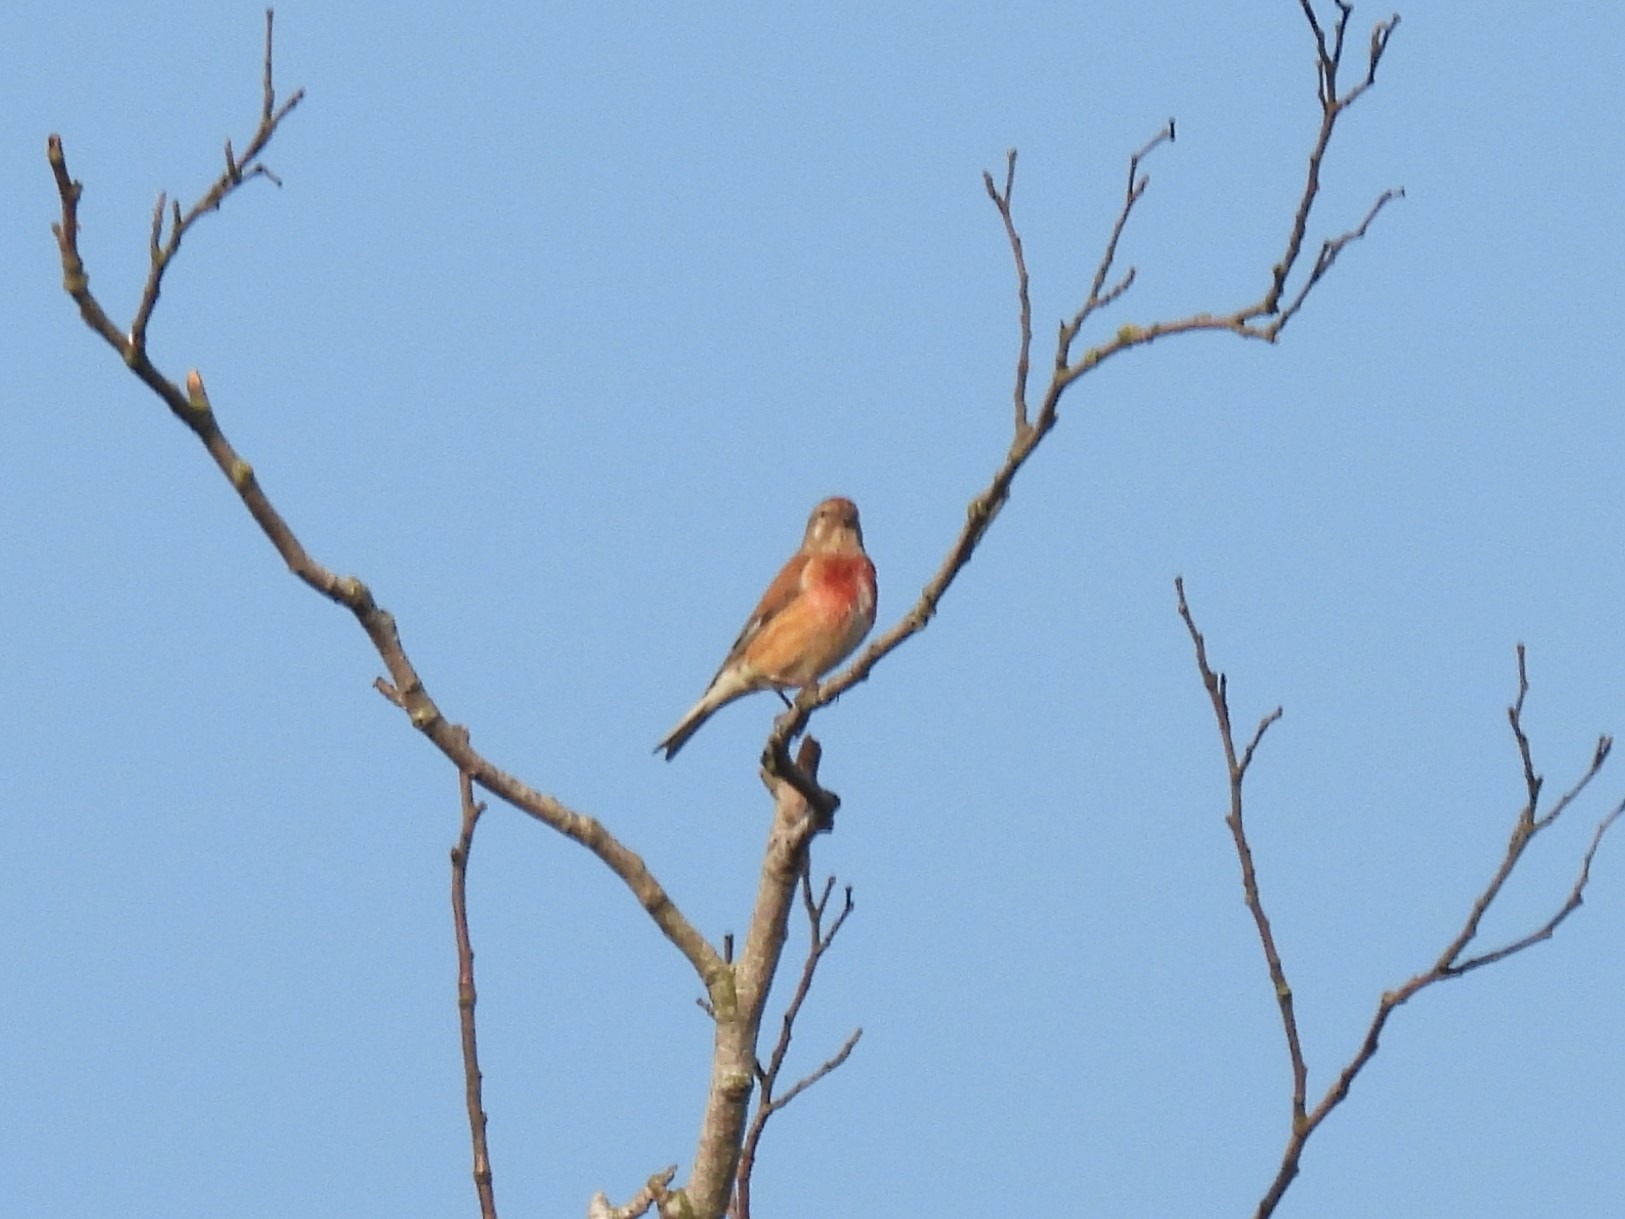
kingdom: Animalia
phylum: Chordata
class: Aves
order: Passeriformes
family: Fringillidae
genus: Linaria
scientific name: Linaria cannabina
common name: Tornirisk
